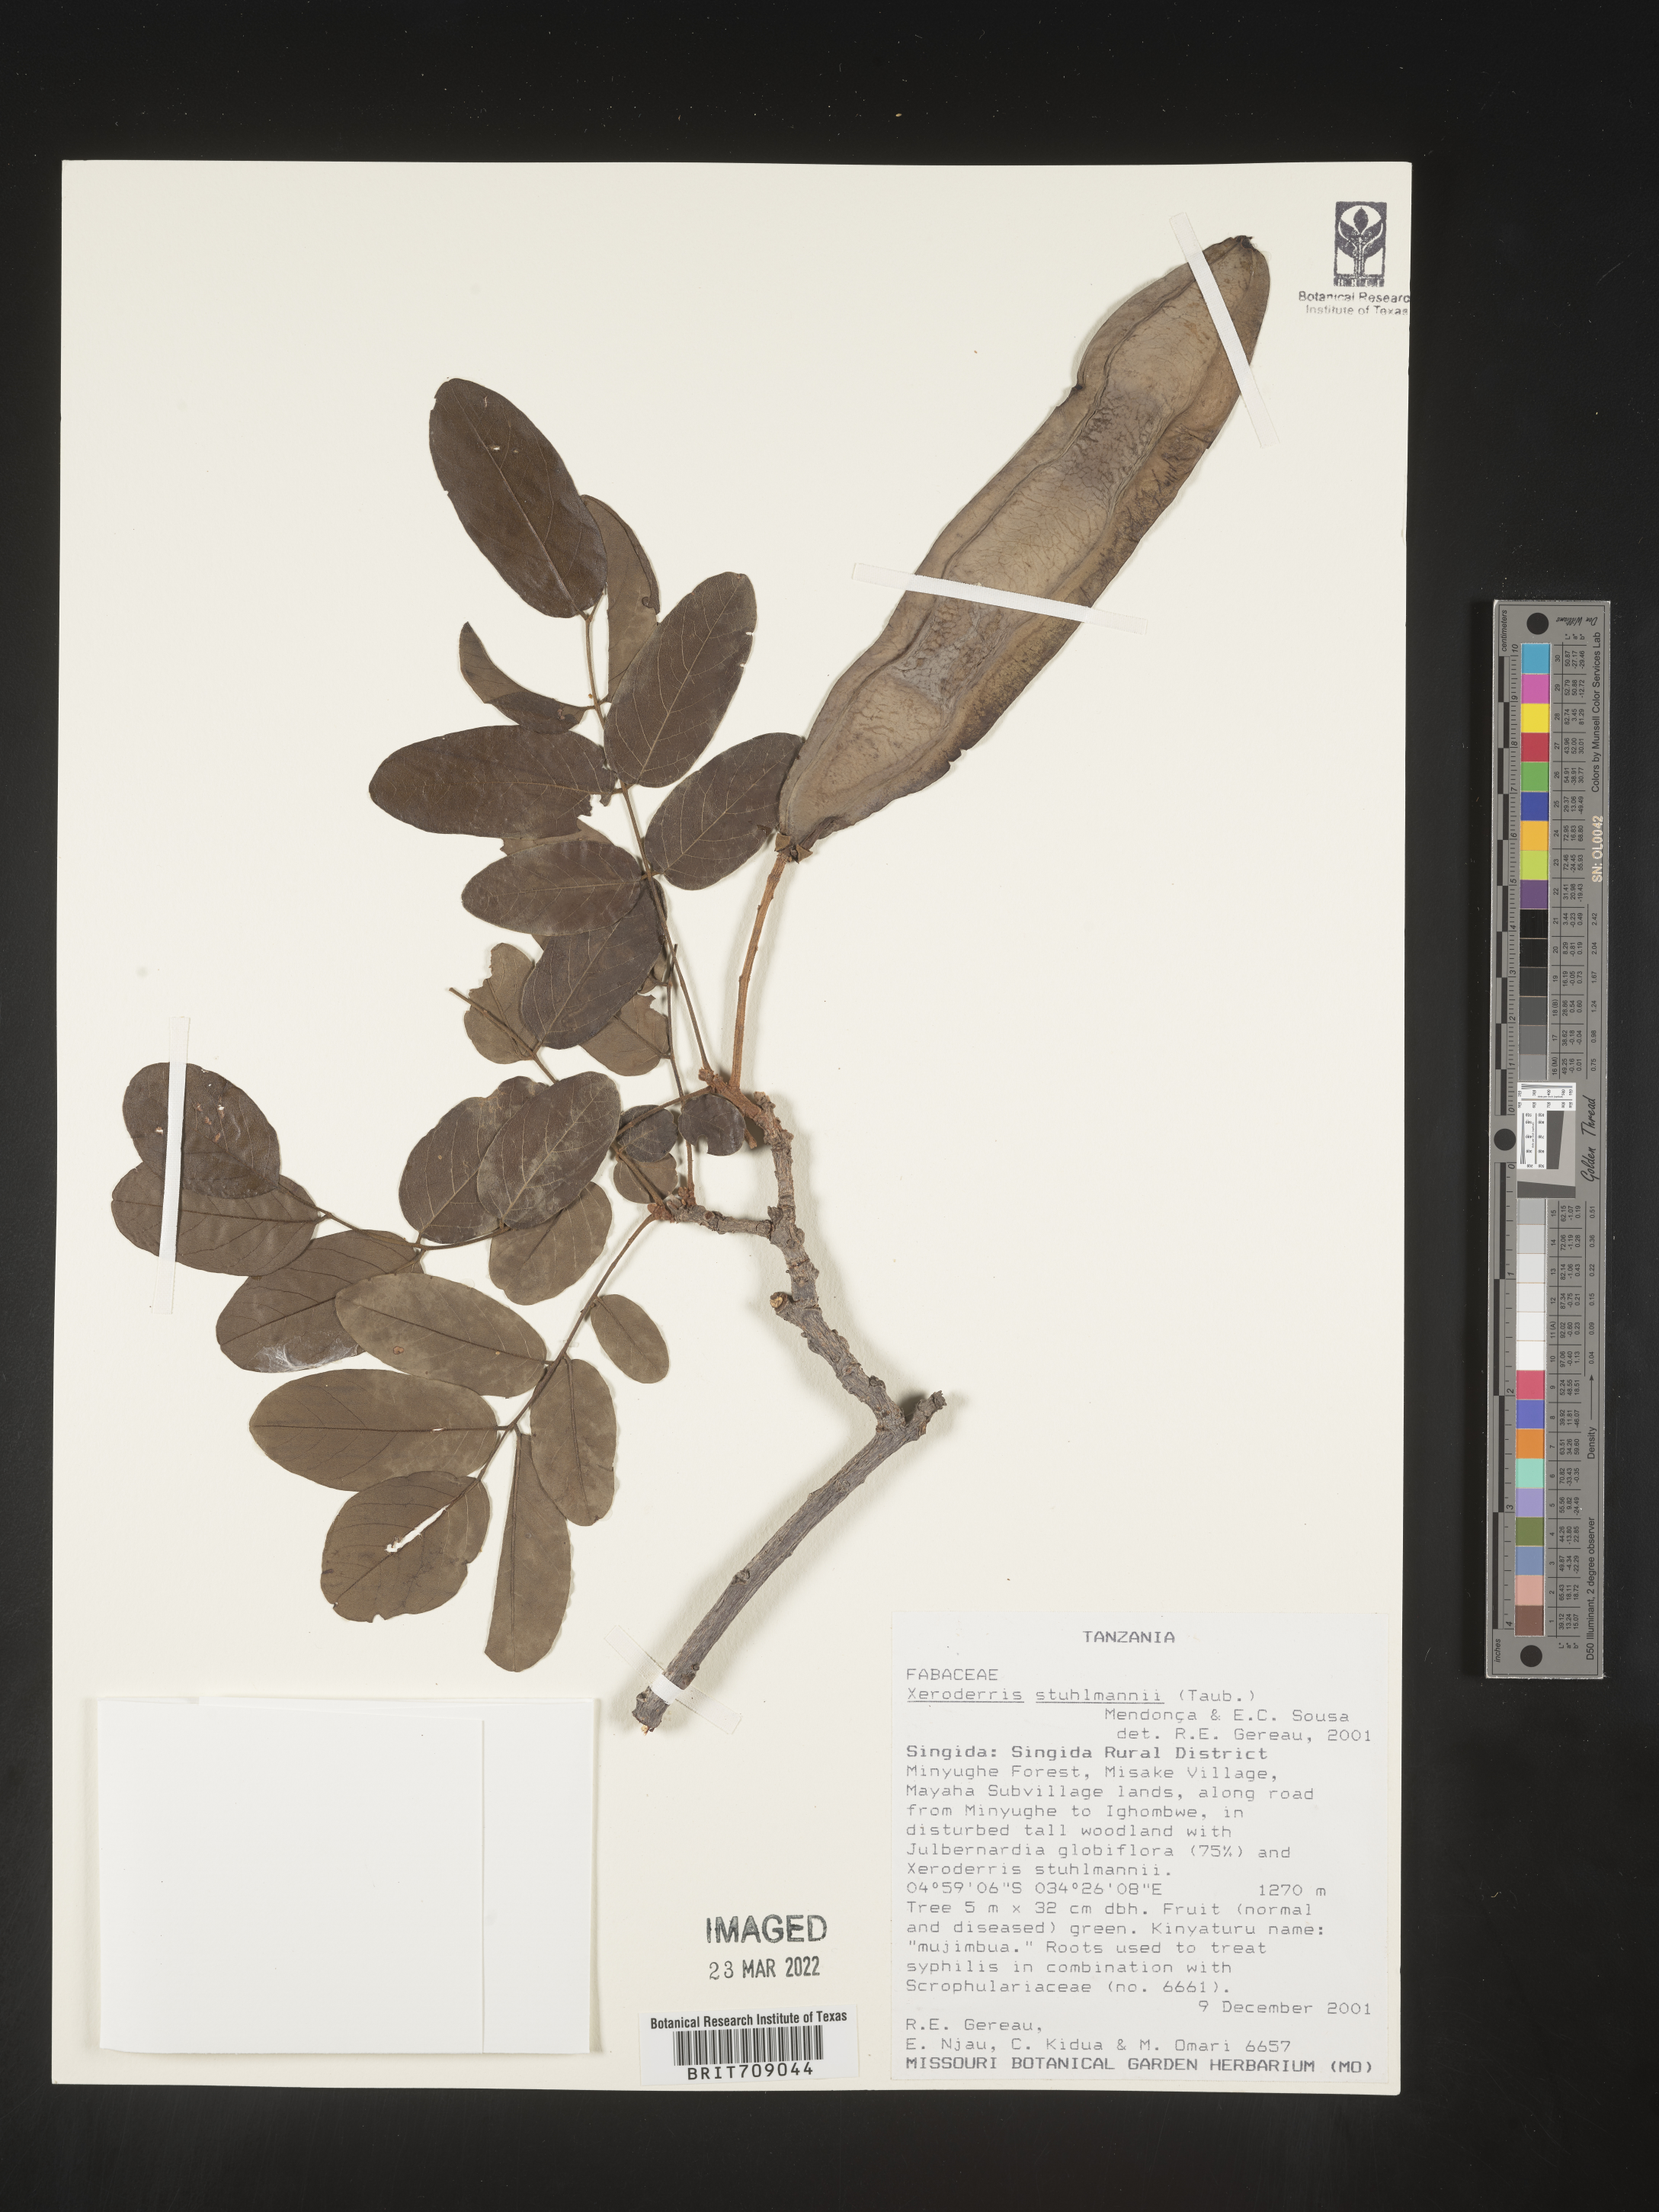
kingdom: Plantae
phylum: Tracheophyta
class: Magnoliopsida
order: Fabales
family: Fabaceae
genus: Aganope
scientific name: Aganope
